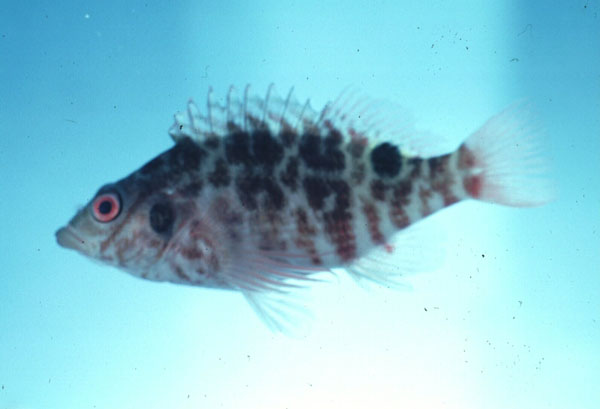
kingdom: Animalia
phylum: Chordata
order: Perciformes
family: Cirrhitidae
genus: Amblycirrhitus
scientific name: Amblycirrhitus bimacula
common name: Twinspot hawkfish
